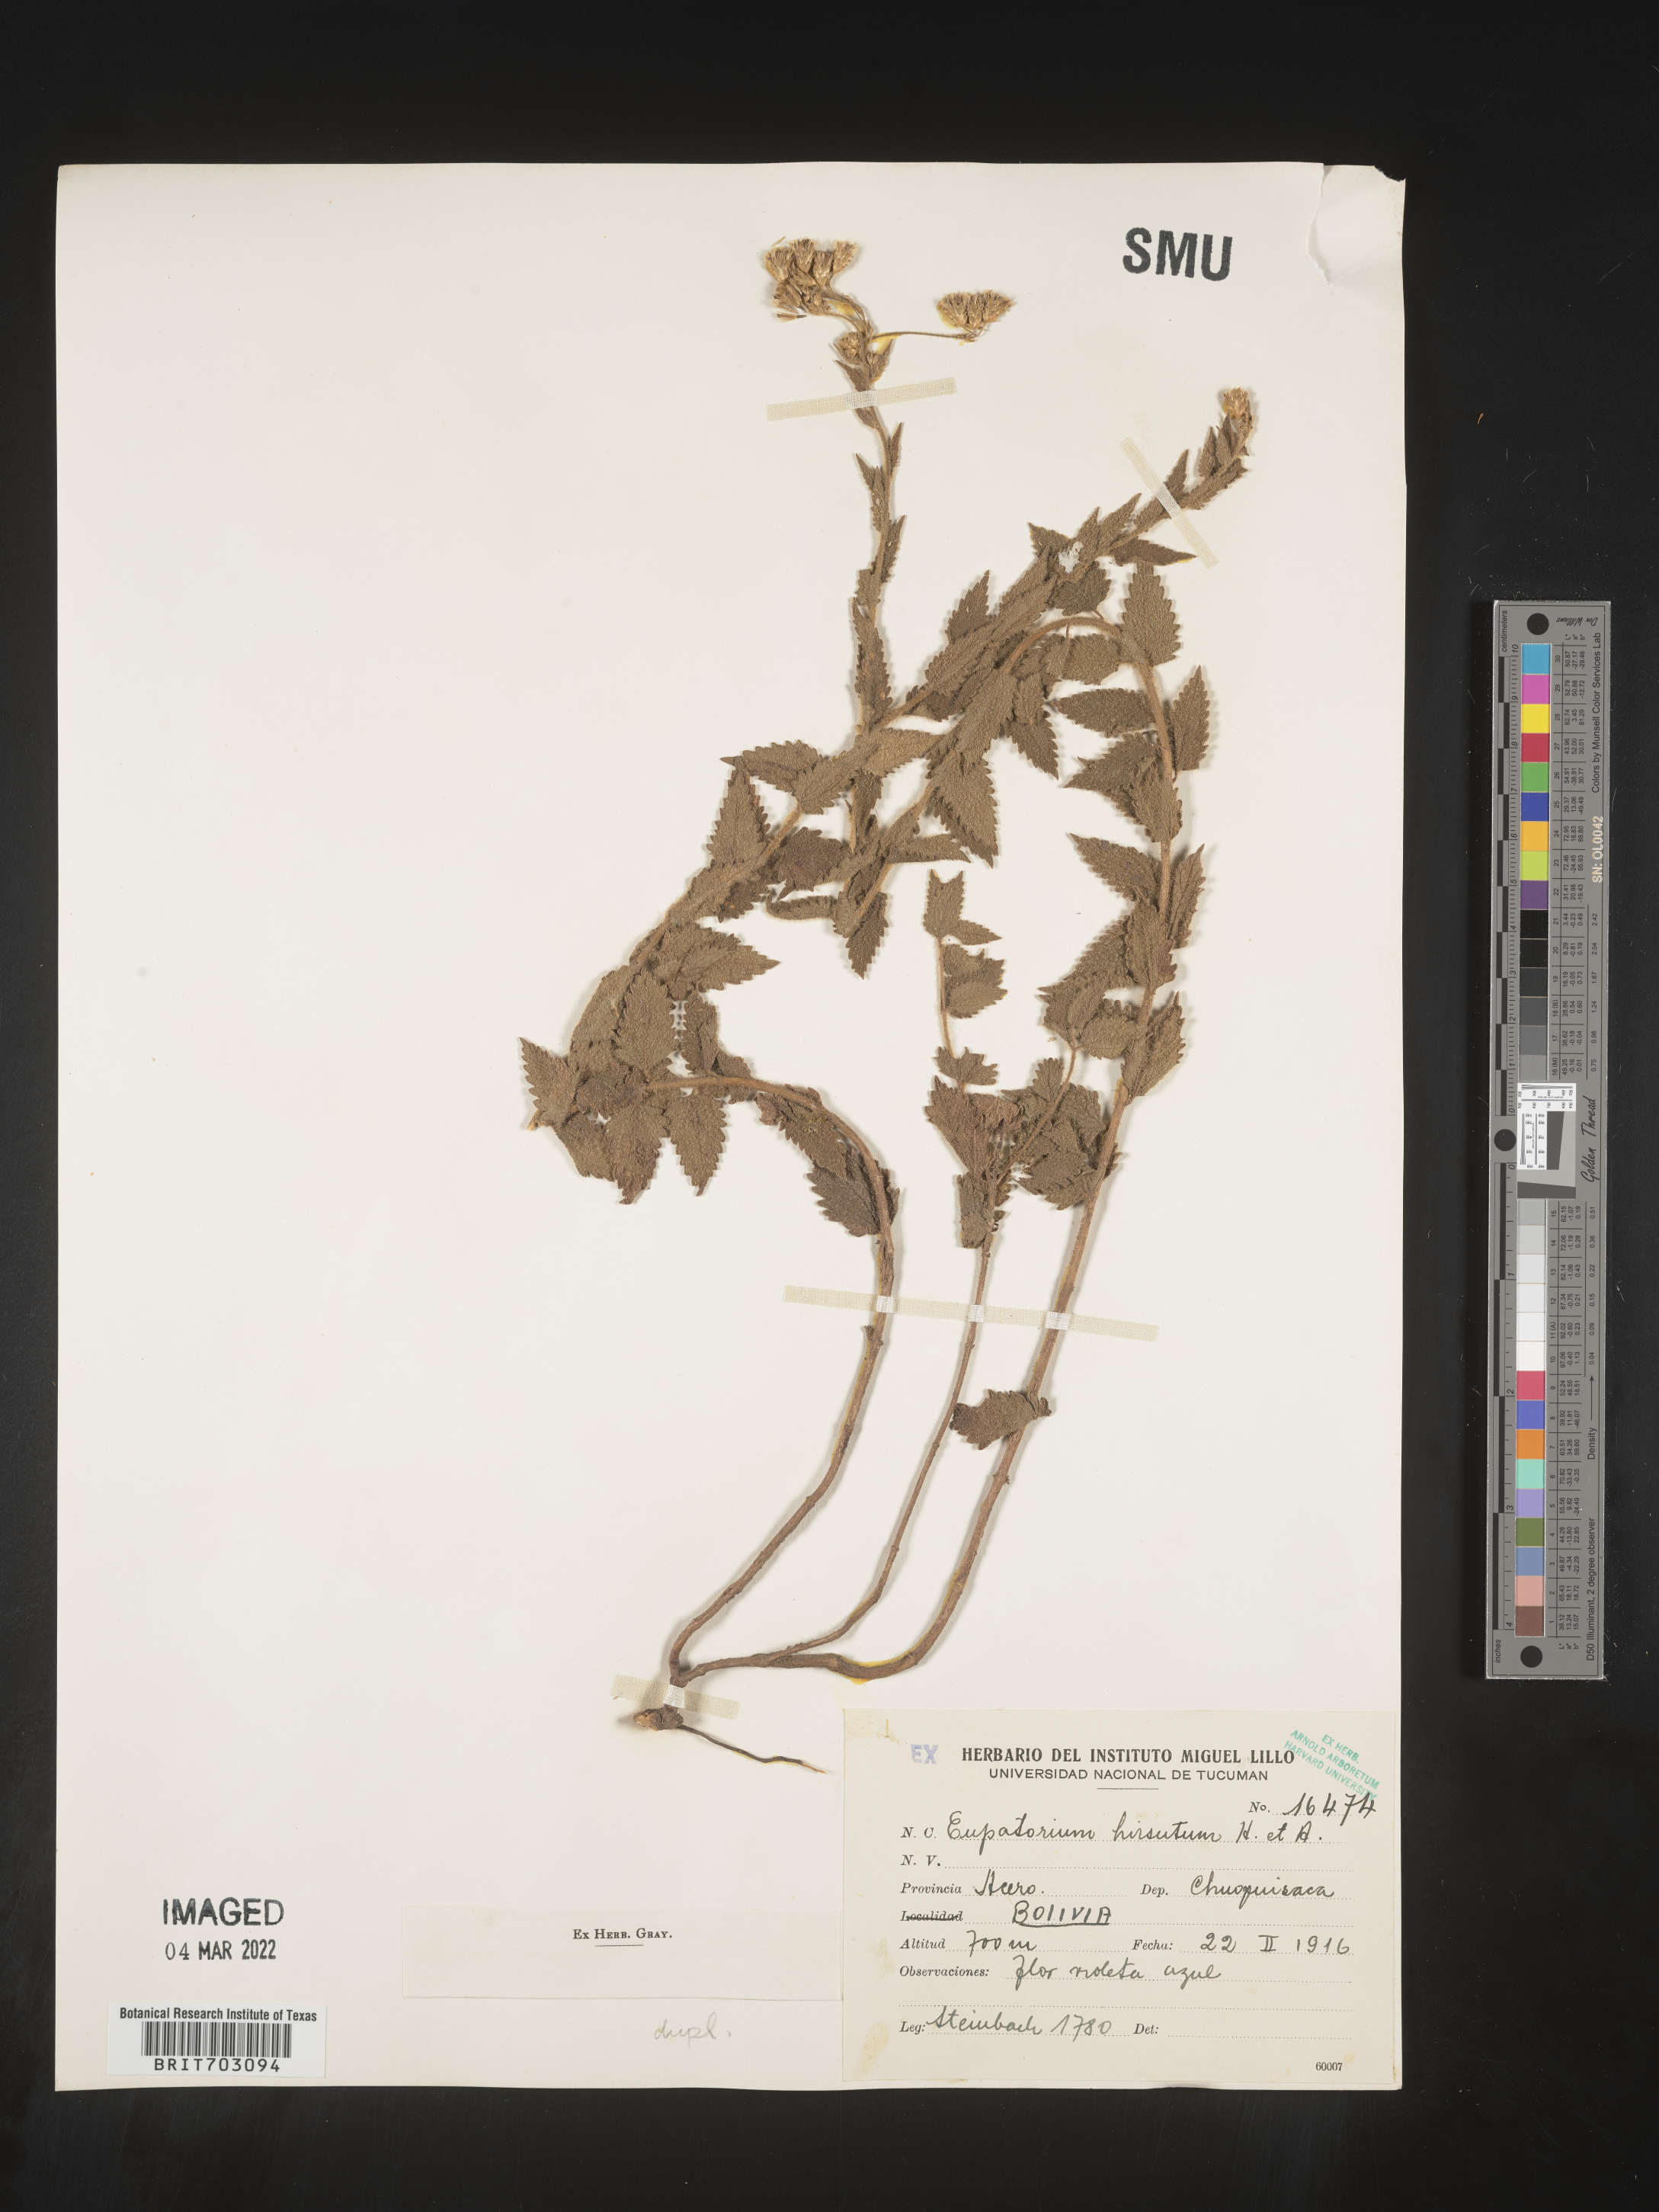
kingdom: Plantae
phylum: Tracheophyta
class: Magnoliopsida
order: Asterales
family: Asteraceae
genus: Eupatorium
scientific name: Eupatorium
